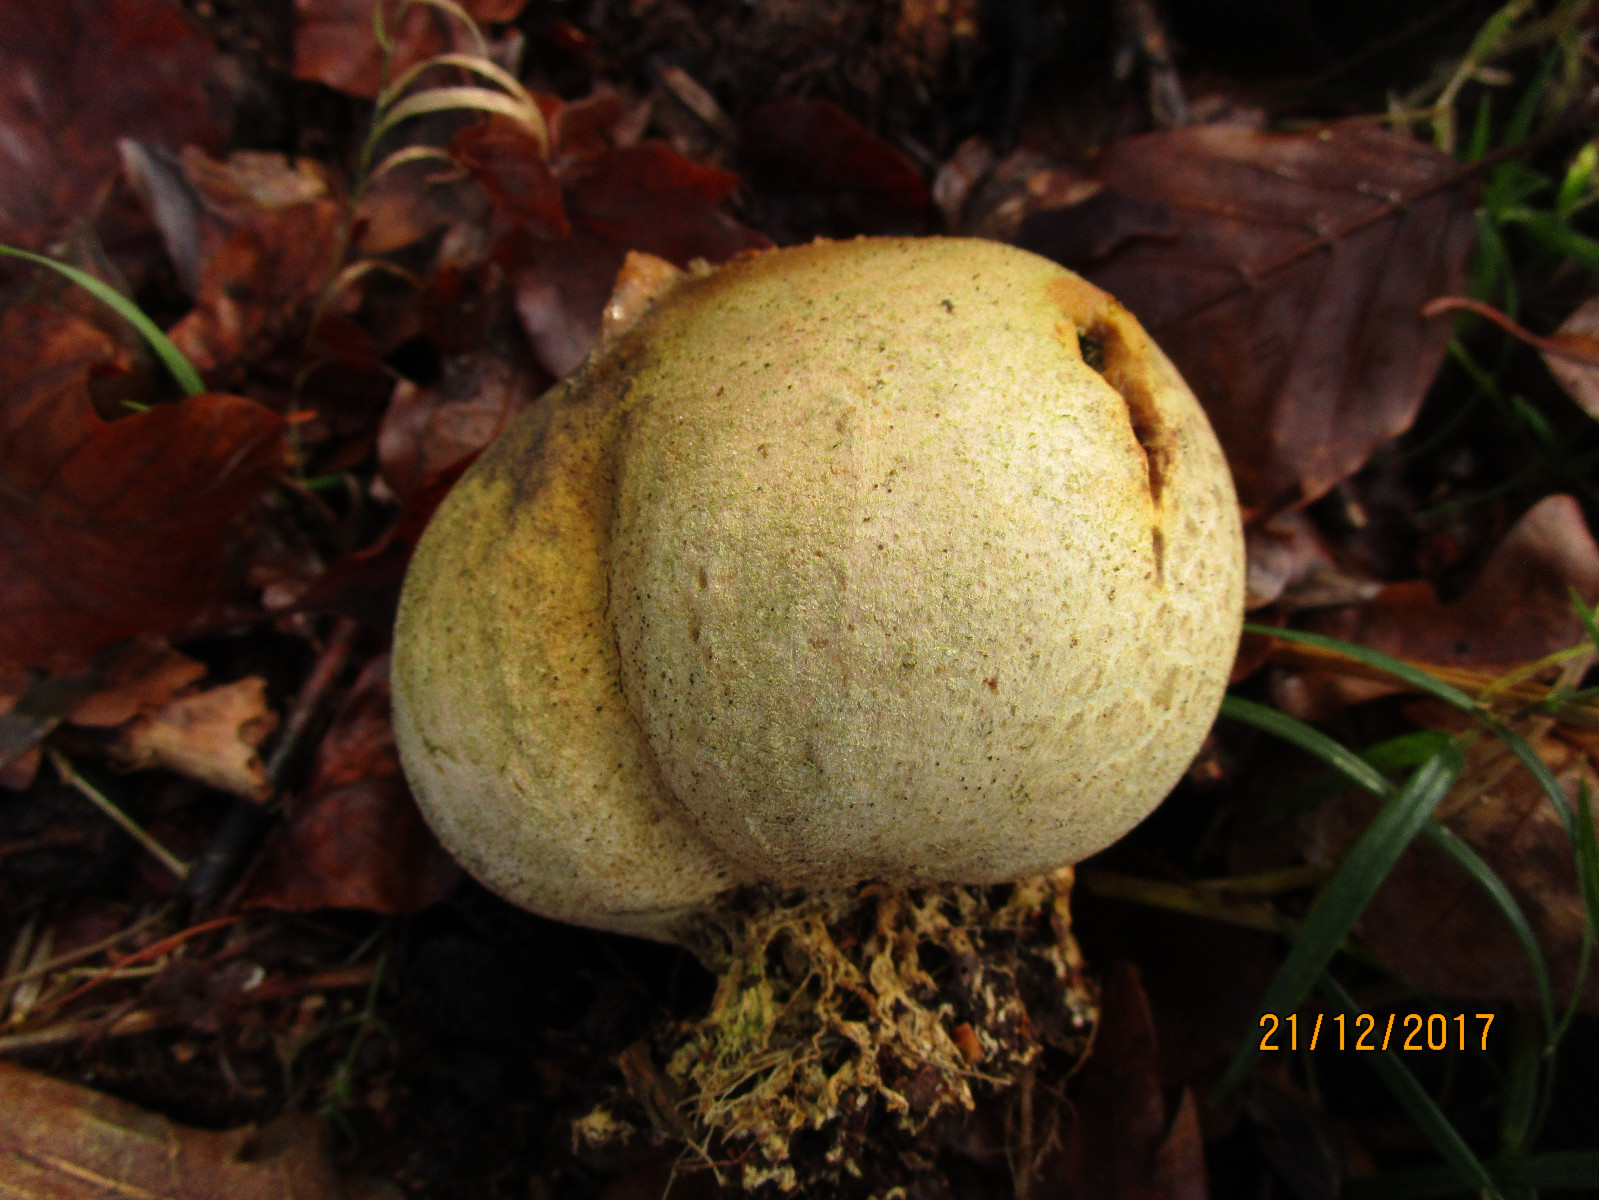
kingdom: Fungi
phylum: Basidiomycota
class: Agaricomycetes
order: Boletales
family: Sclerodermataceae
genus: Scleroderma
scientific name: Scleroderma areolatum
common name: plettet bruskbold
